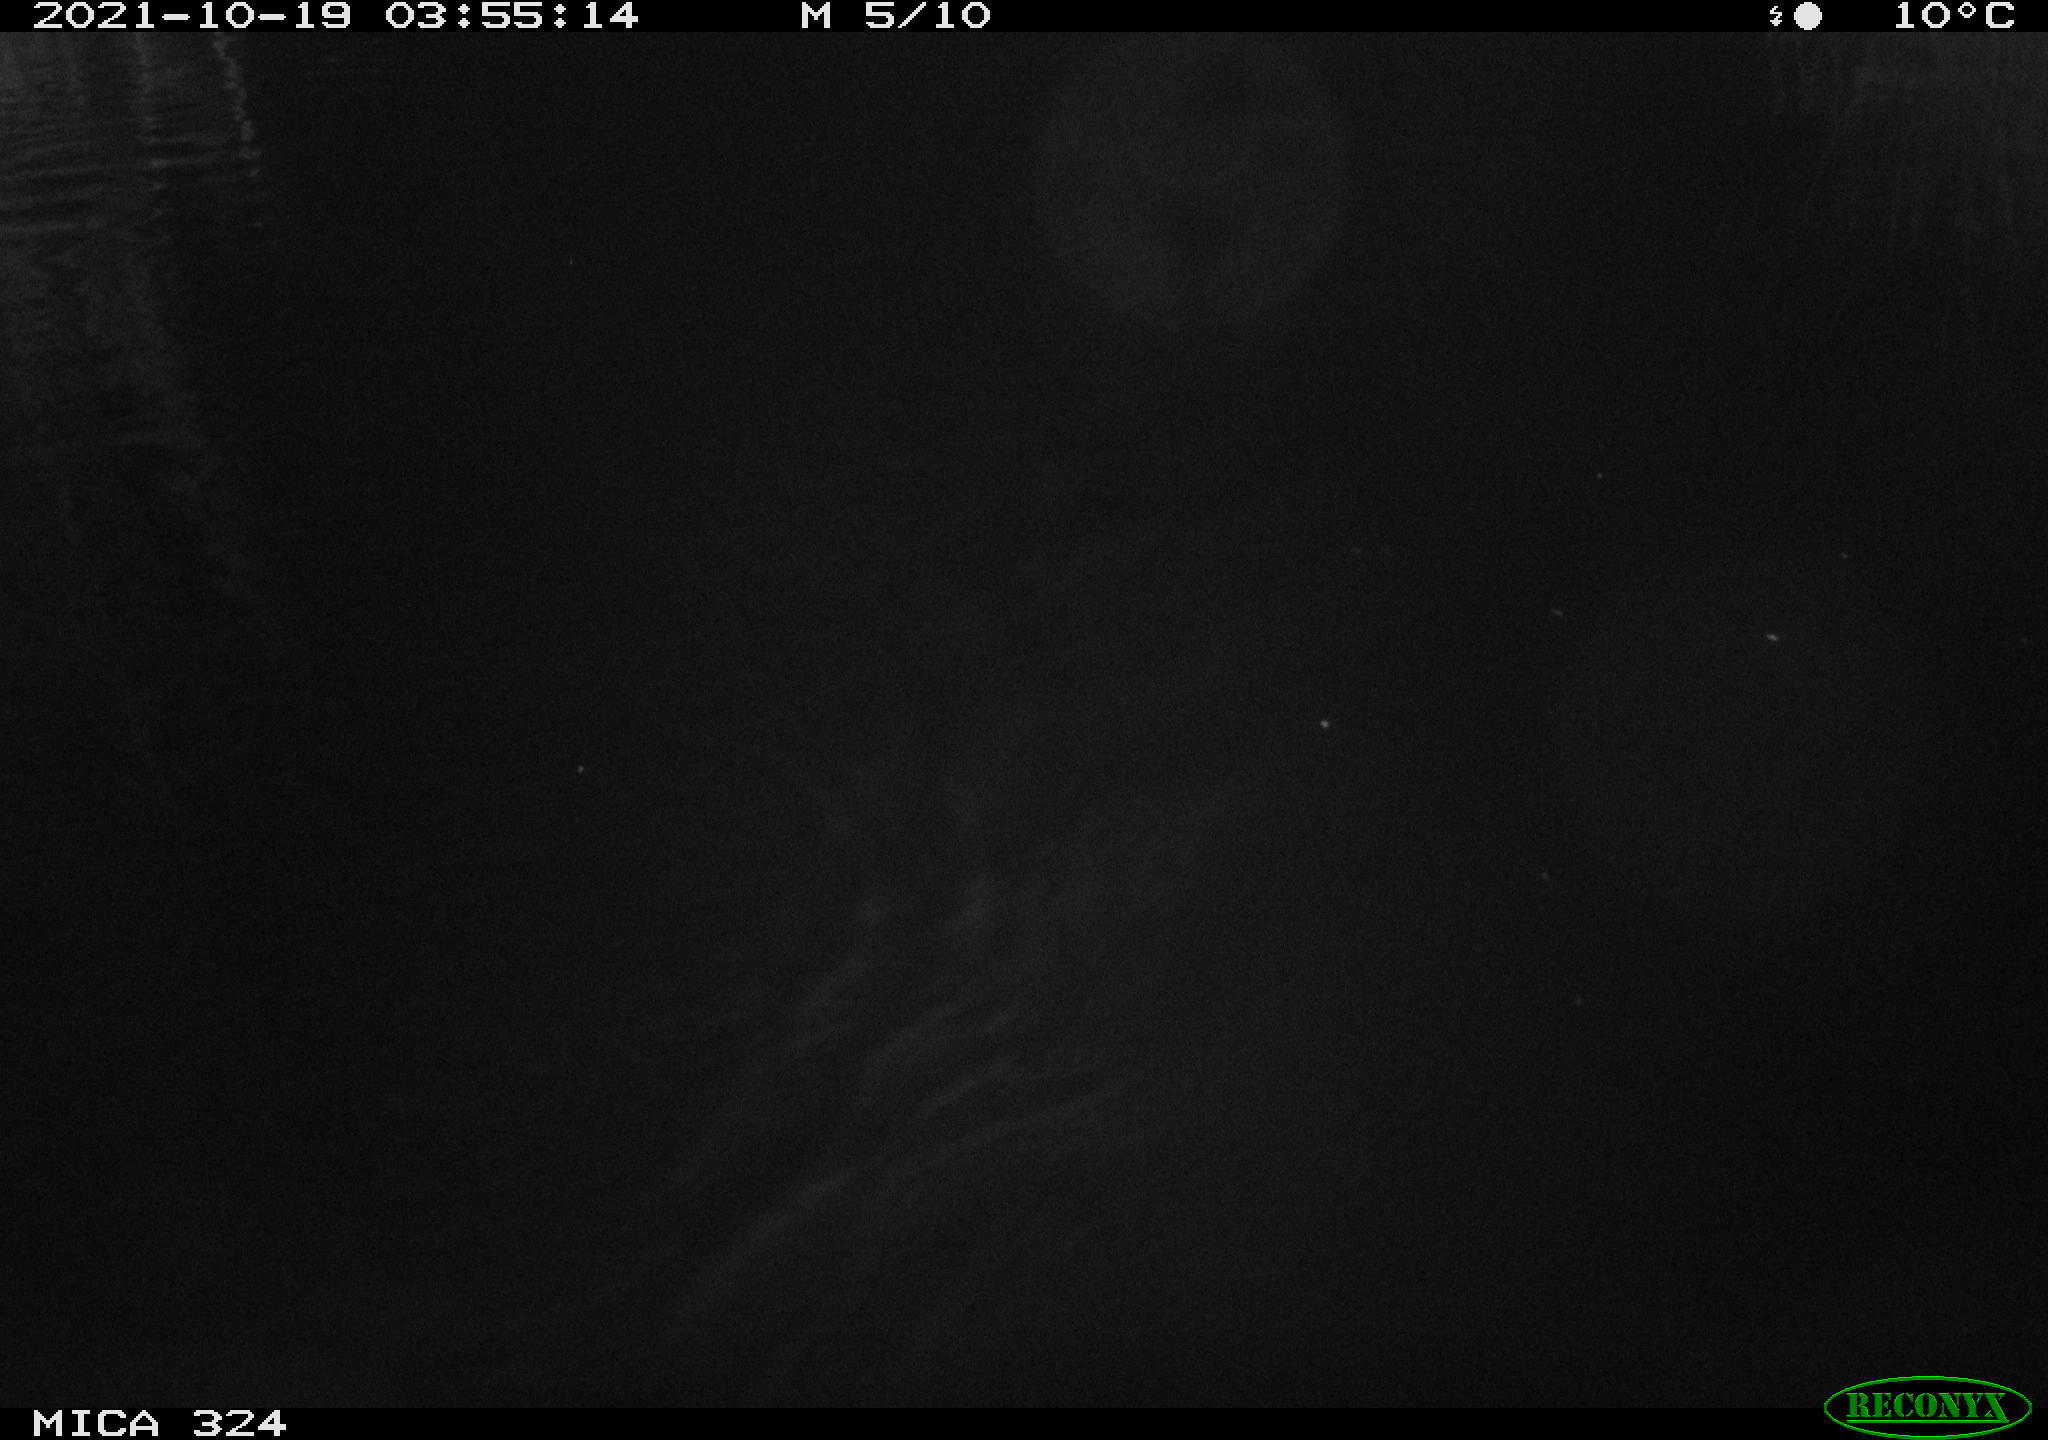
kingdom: Animalia
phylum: Chordata
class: Mammalia
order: Rodentia
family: Cricetidae
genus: Ondatra
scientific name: Ondatra zibethicus
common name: Muskrat
